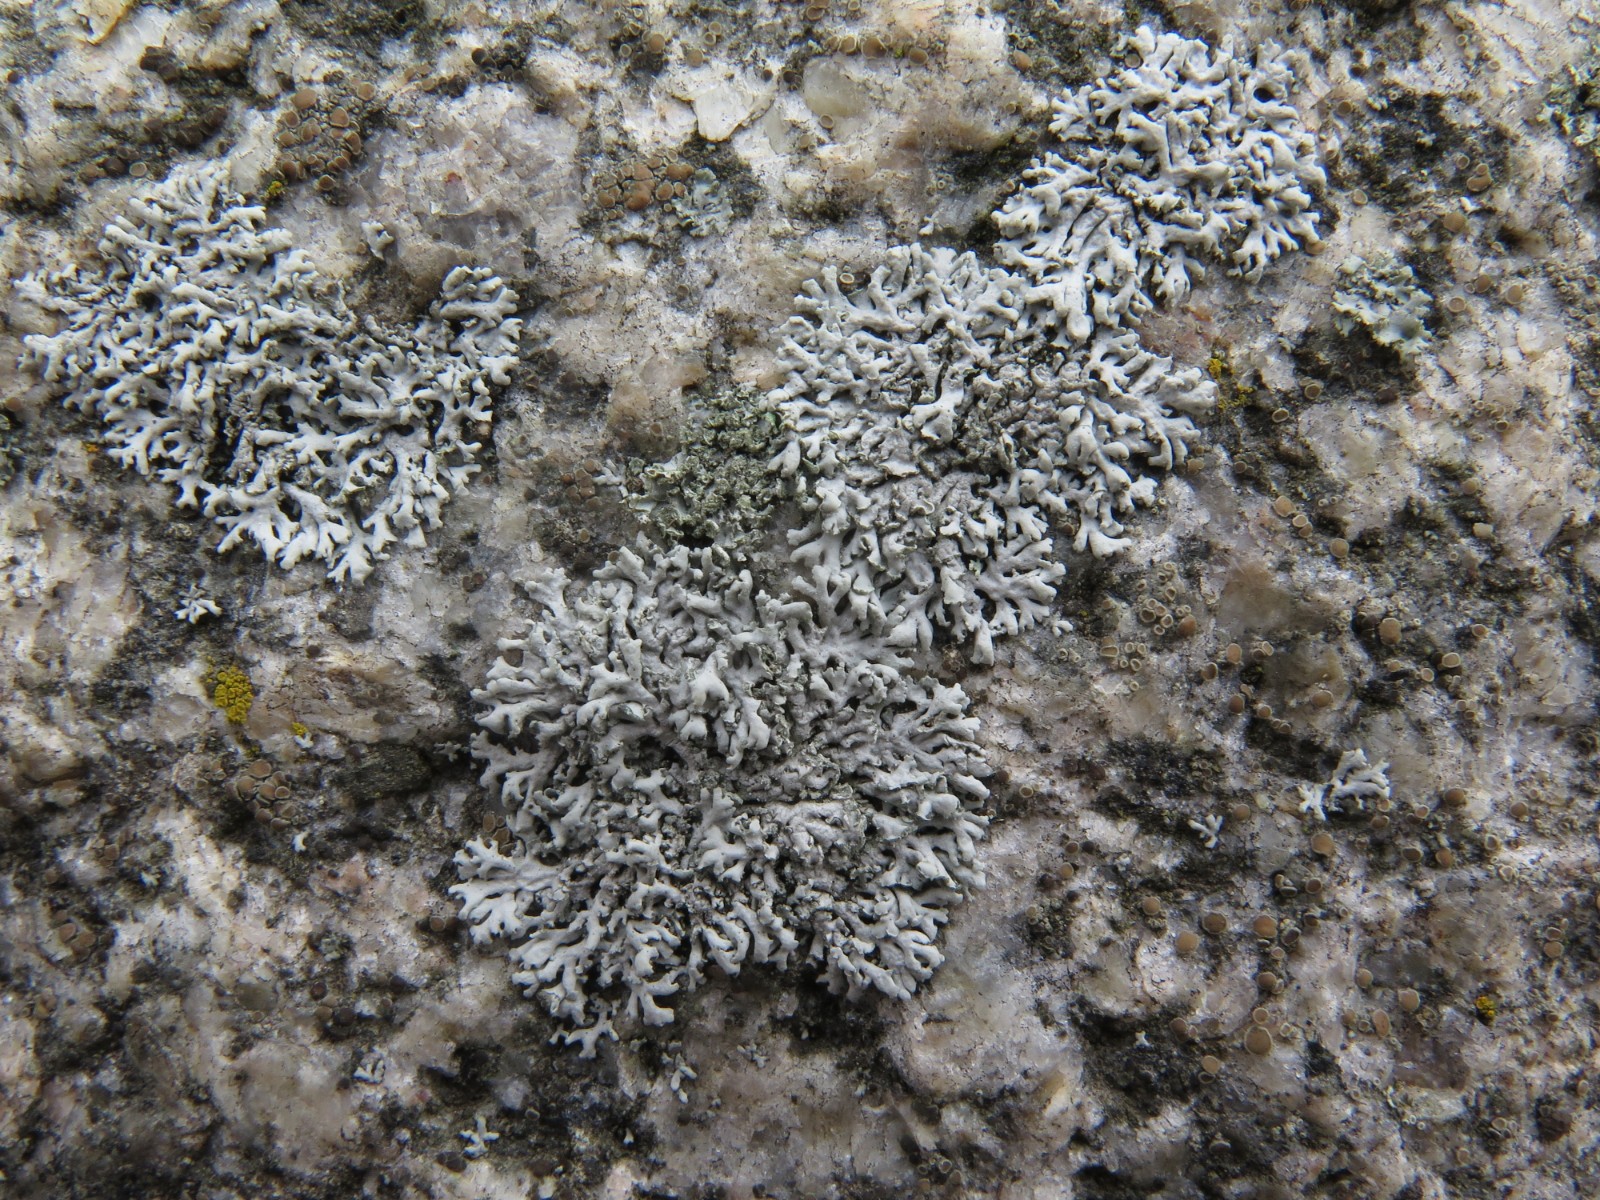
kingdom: Fungi
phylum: Ascomycota
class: Lecanoromycetes
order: Caliciales
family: Physciaceae
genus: Physcia
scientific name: Physcia dubia
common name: fuglestens-rosetlav
